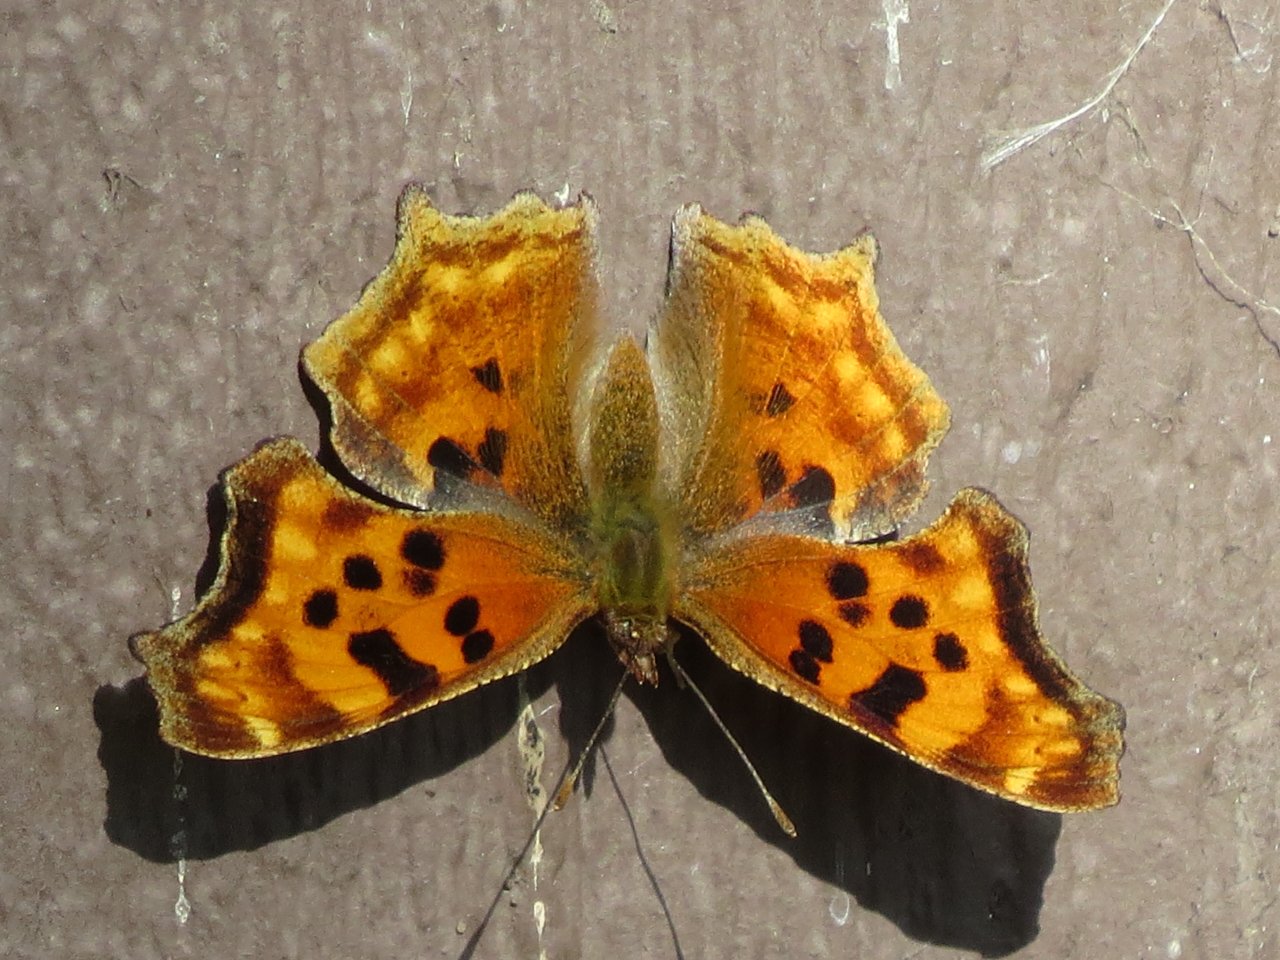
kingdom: Animalia
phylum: Arthropoda
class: Insecta
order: Lepidoptera
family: Nymphalidae
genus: Polygonia
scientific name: Polygonia satyrus
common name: Satyr Comma
